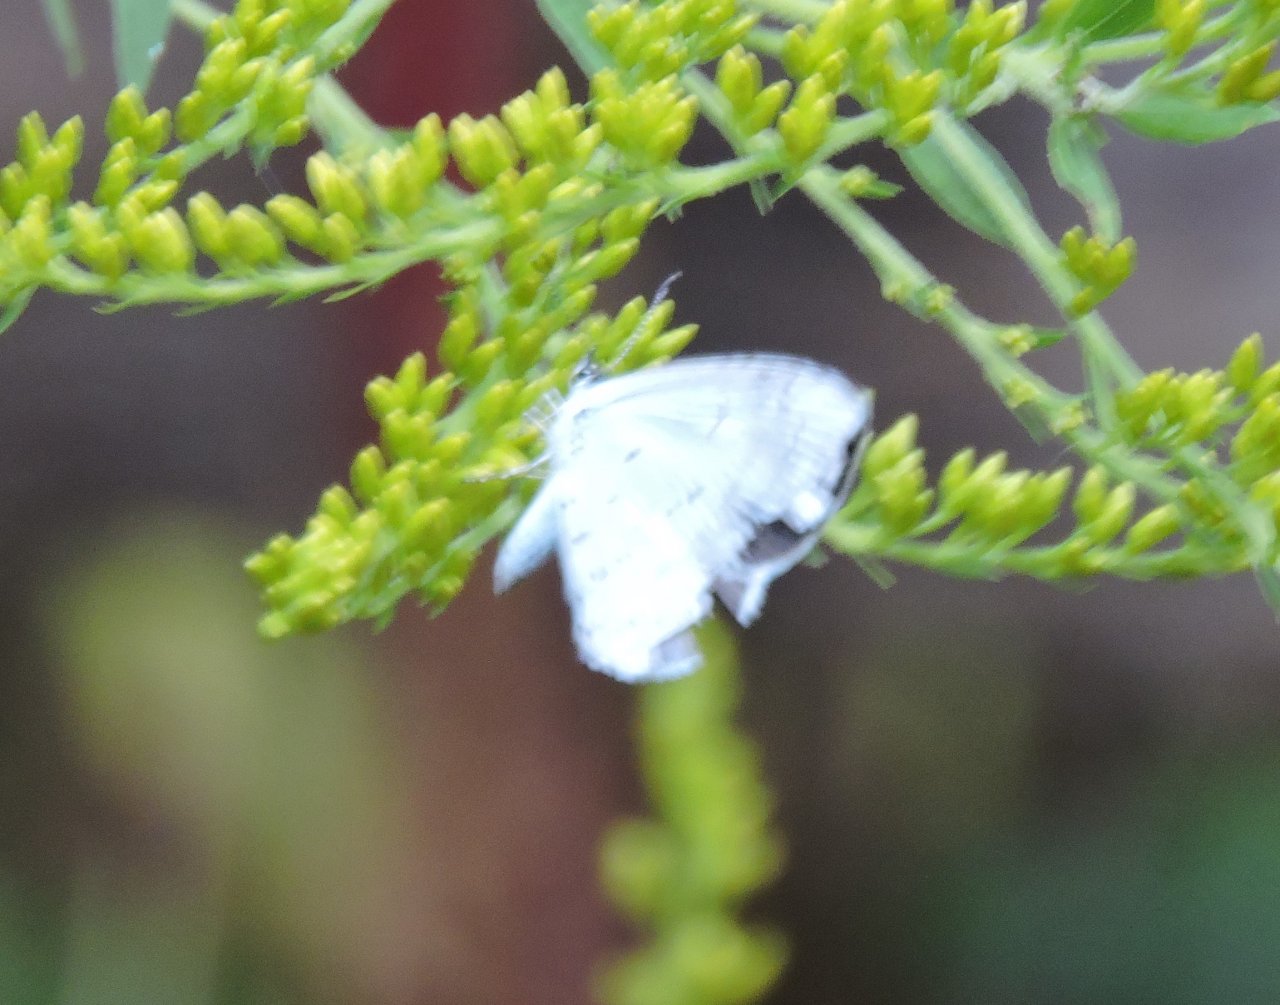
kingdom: Animalia
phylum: Arthropoda
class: Insecta
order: Lepidoptera
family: Lycaenidae
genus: Cyaniris
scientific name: Cyaniris neglecta
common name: Summer Azure
